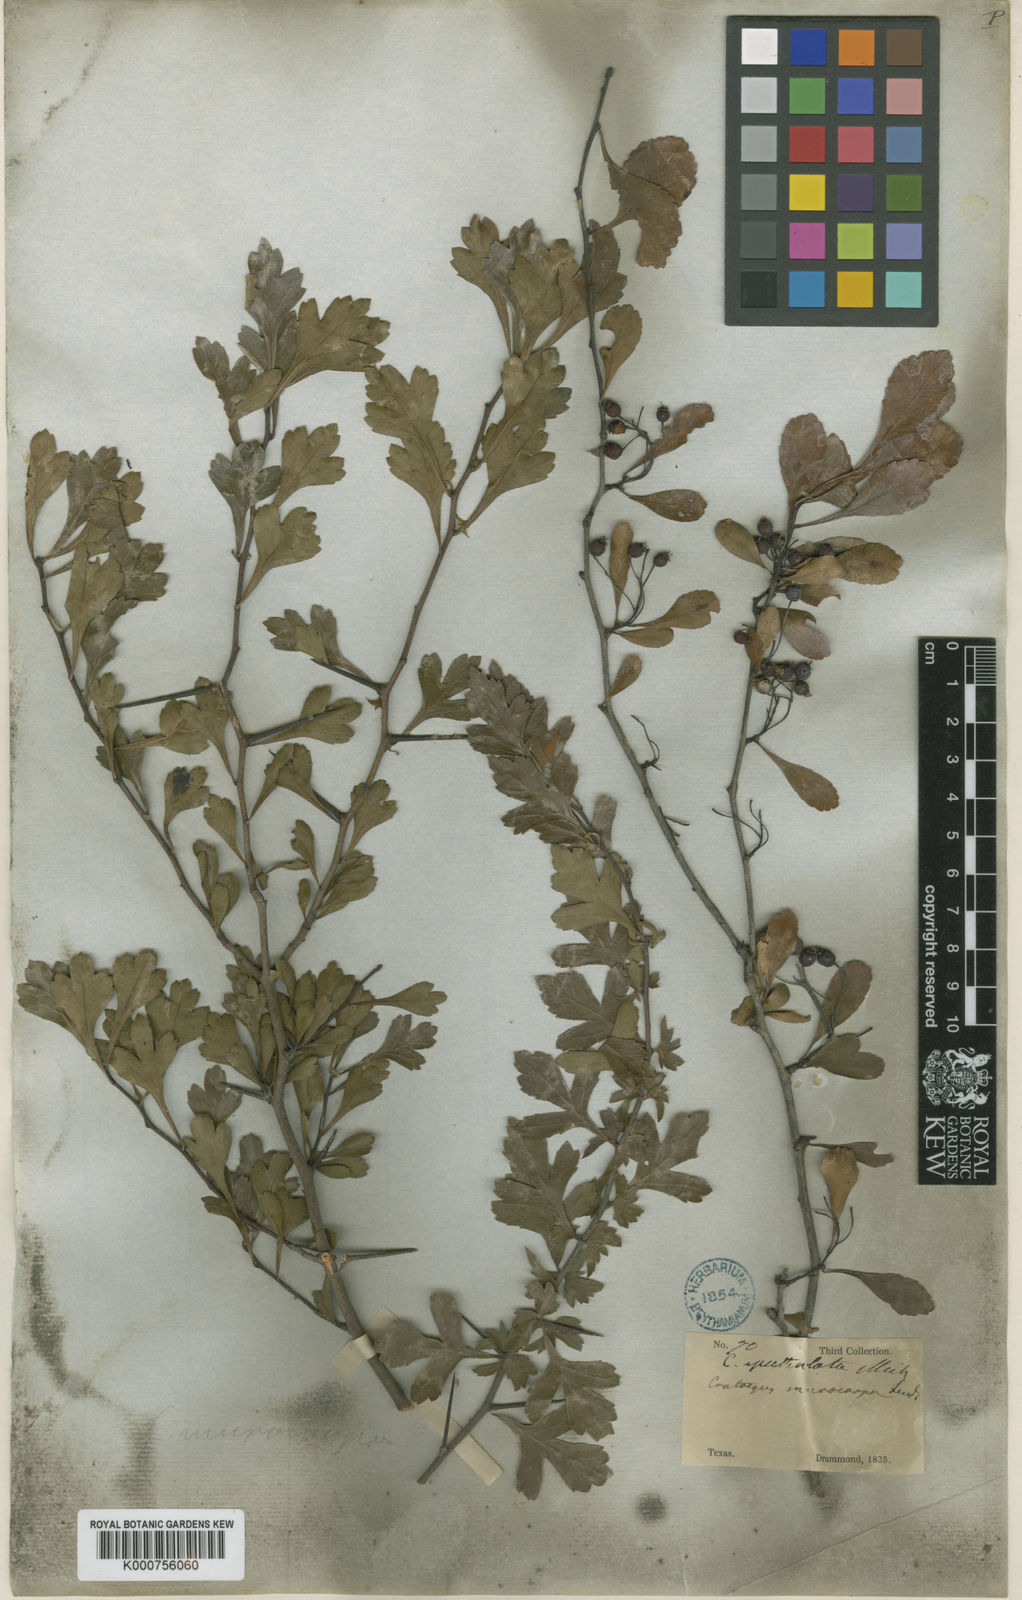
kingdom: Plantae
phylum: Tracheophyta
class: Magnoliopsida
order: Rosales
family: Rosaceae
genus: Crataegus
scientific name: Crataegus spathulata
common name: Littlehip hawthorn
